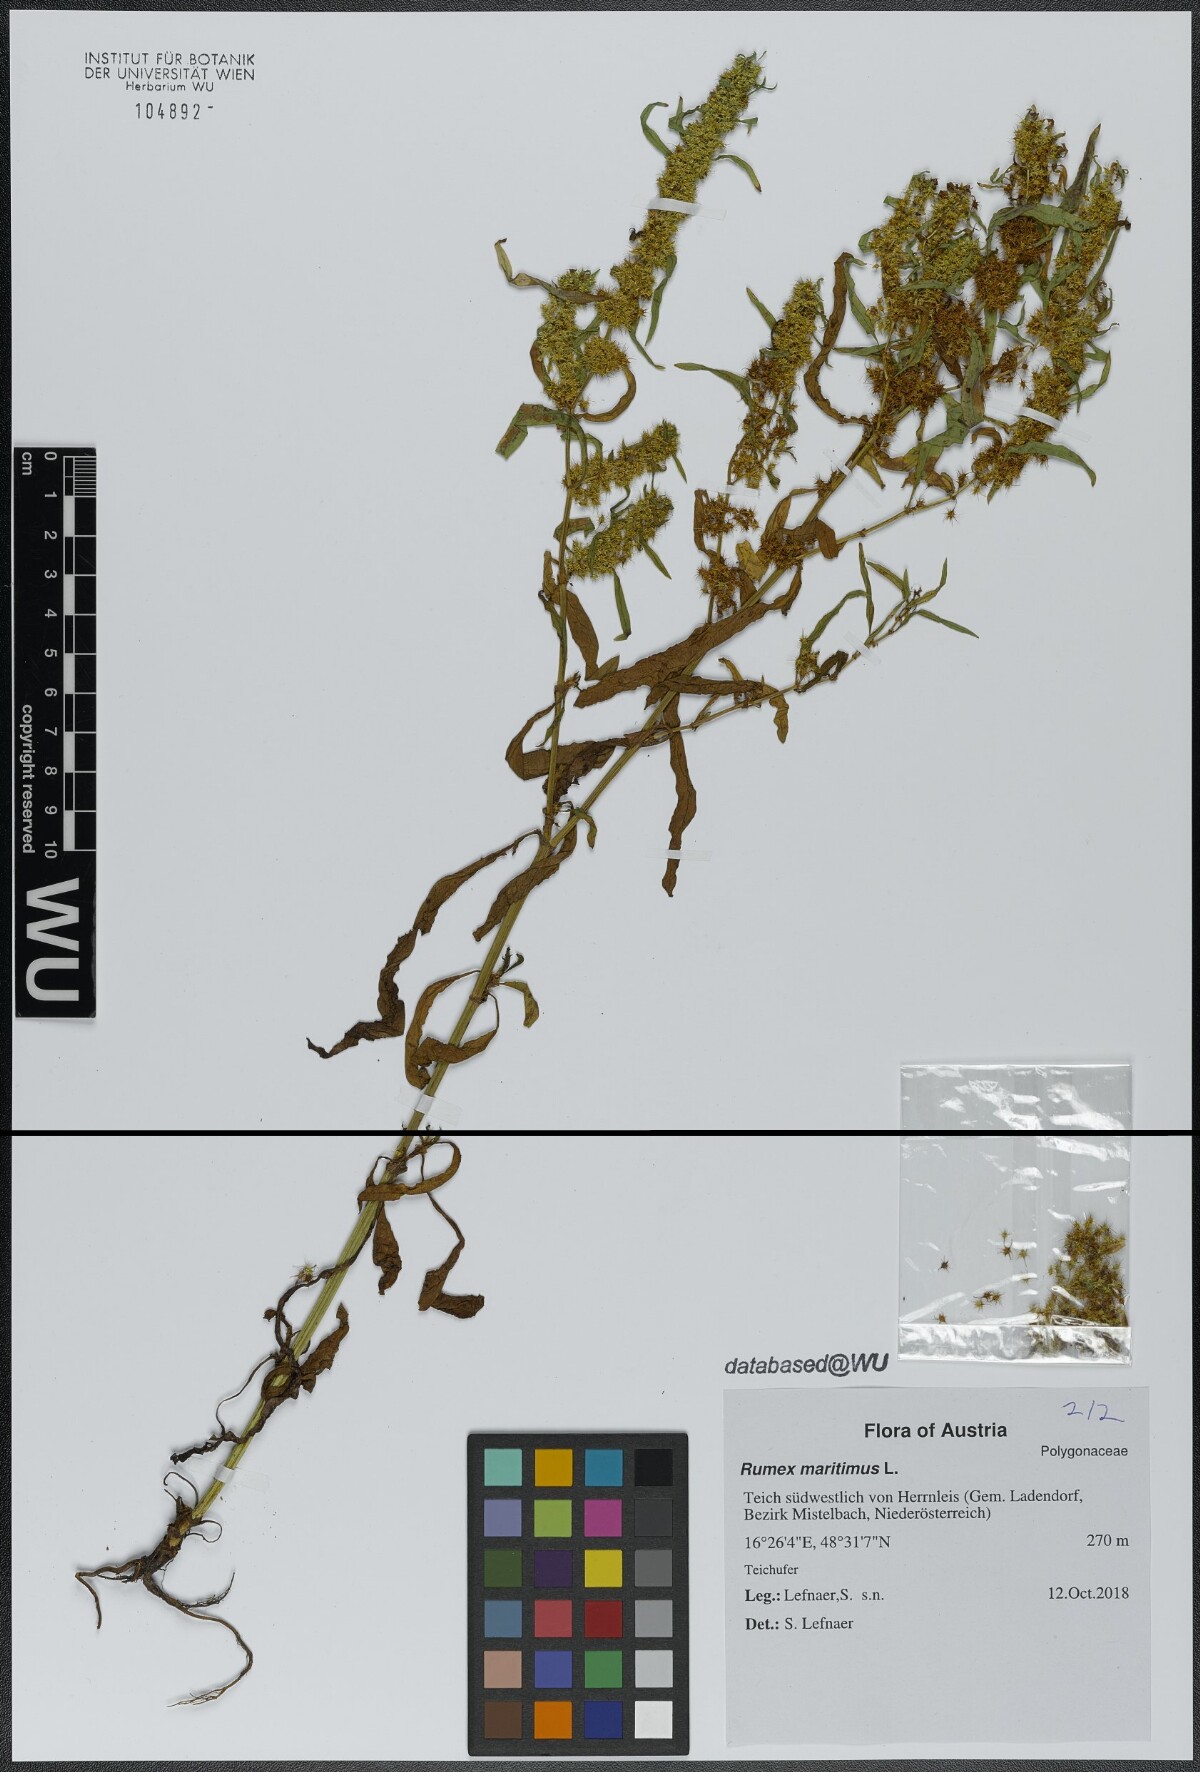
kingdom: Plantae
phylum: Tracheophyta
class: Magnoliopsida
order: Caryophyllales
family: Polygonaceae
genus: Rumex
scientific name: Rumex maritimus
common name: Golden dock
